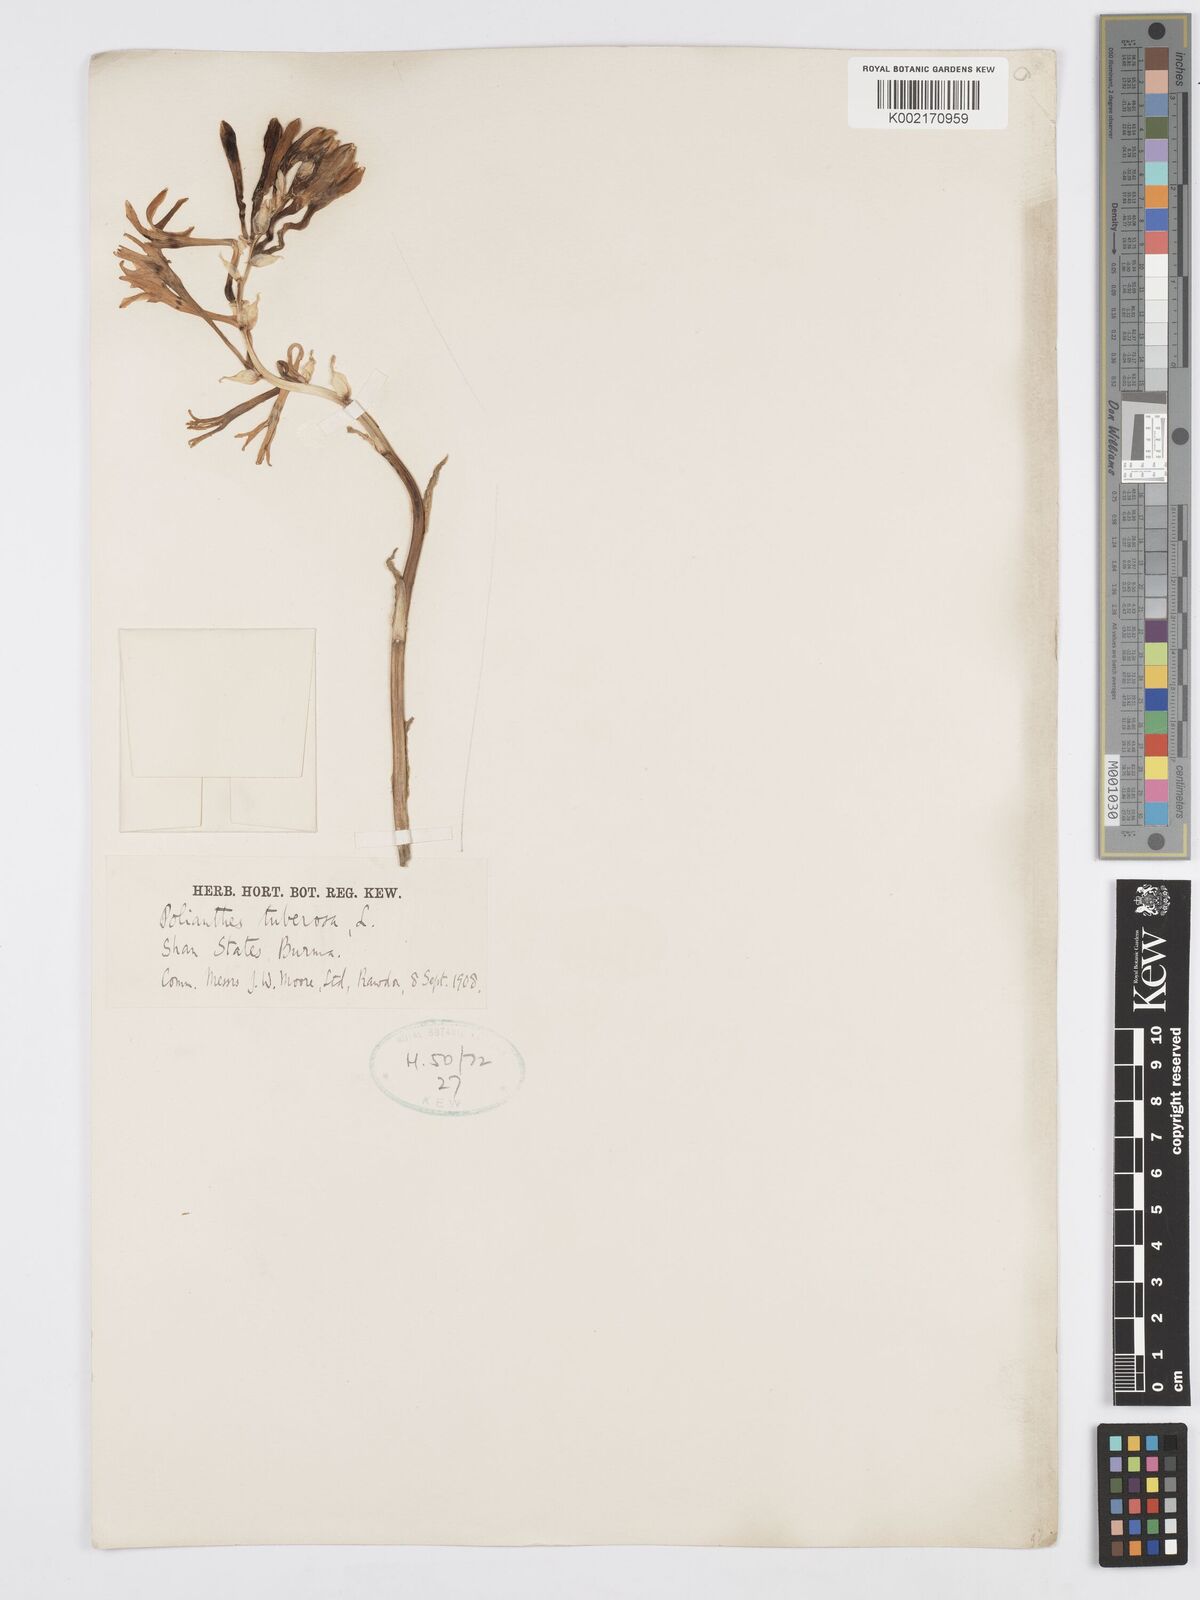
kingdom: Plantae
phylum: Tracheophyta
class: Liliopsida
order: Asparagales
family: Asparagaceae
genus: Agave
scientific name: Agave amica
